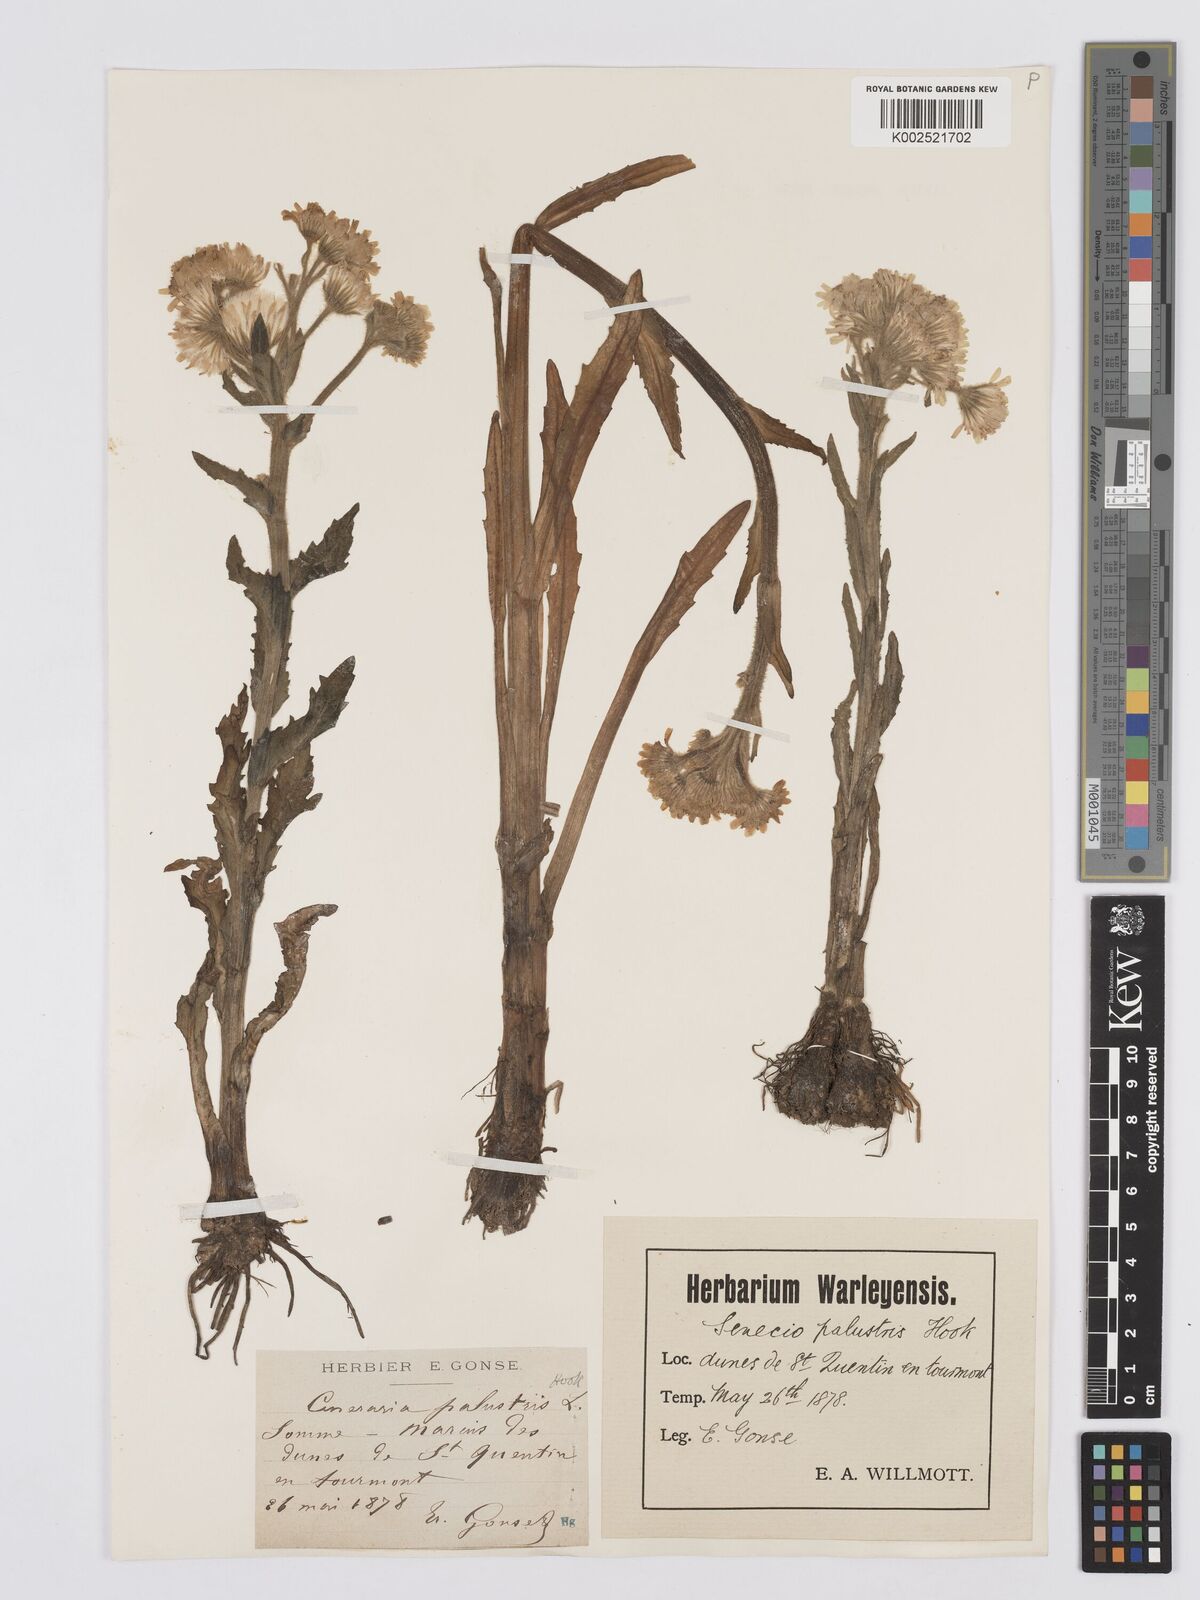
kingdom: Plantae
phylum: Tracheophyta
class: Magnoliopsida
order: Asterales
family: Asteraceae
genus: Tephroseris
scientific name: Tephroseris palustris
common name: Marsh fleawort
